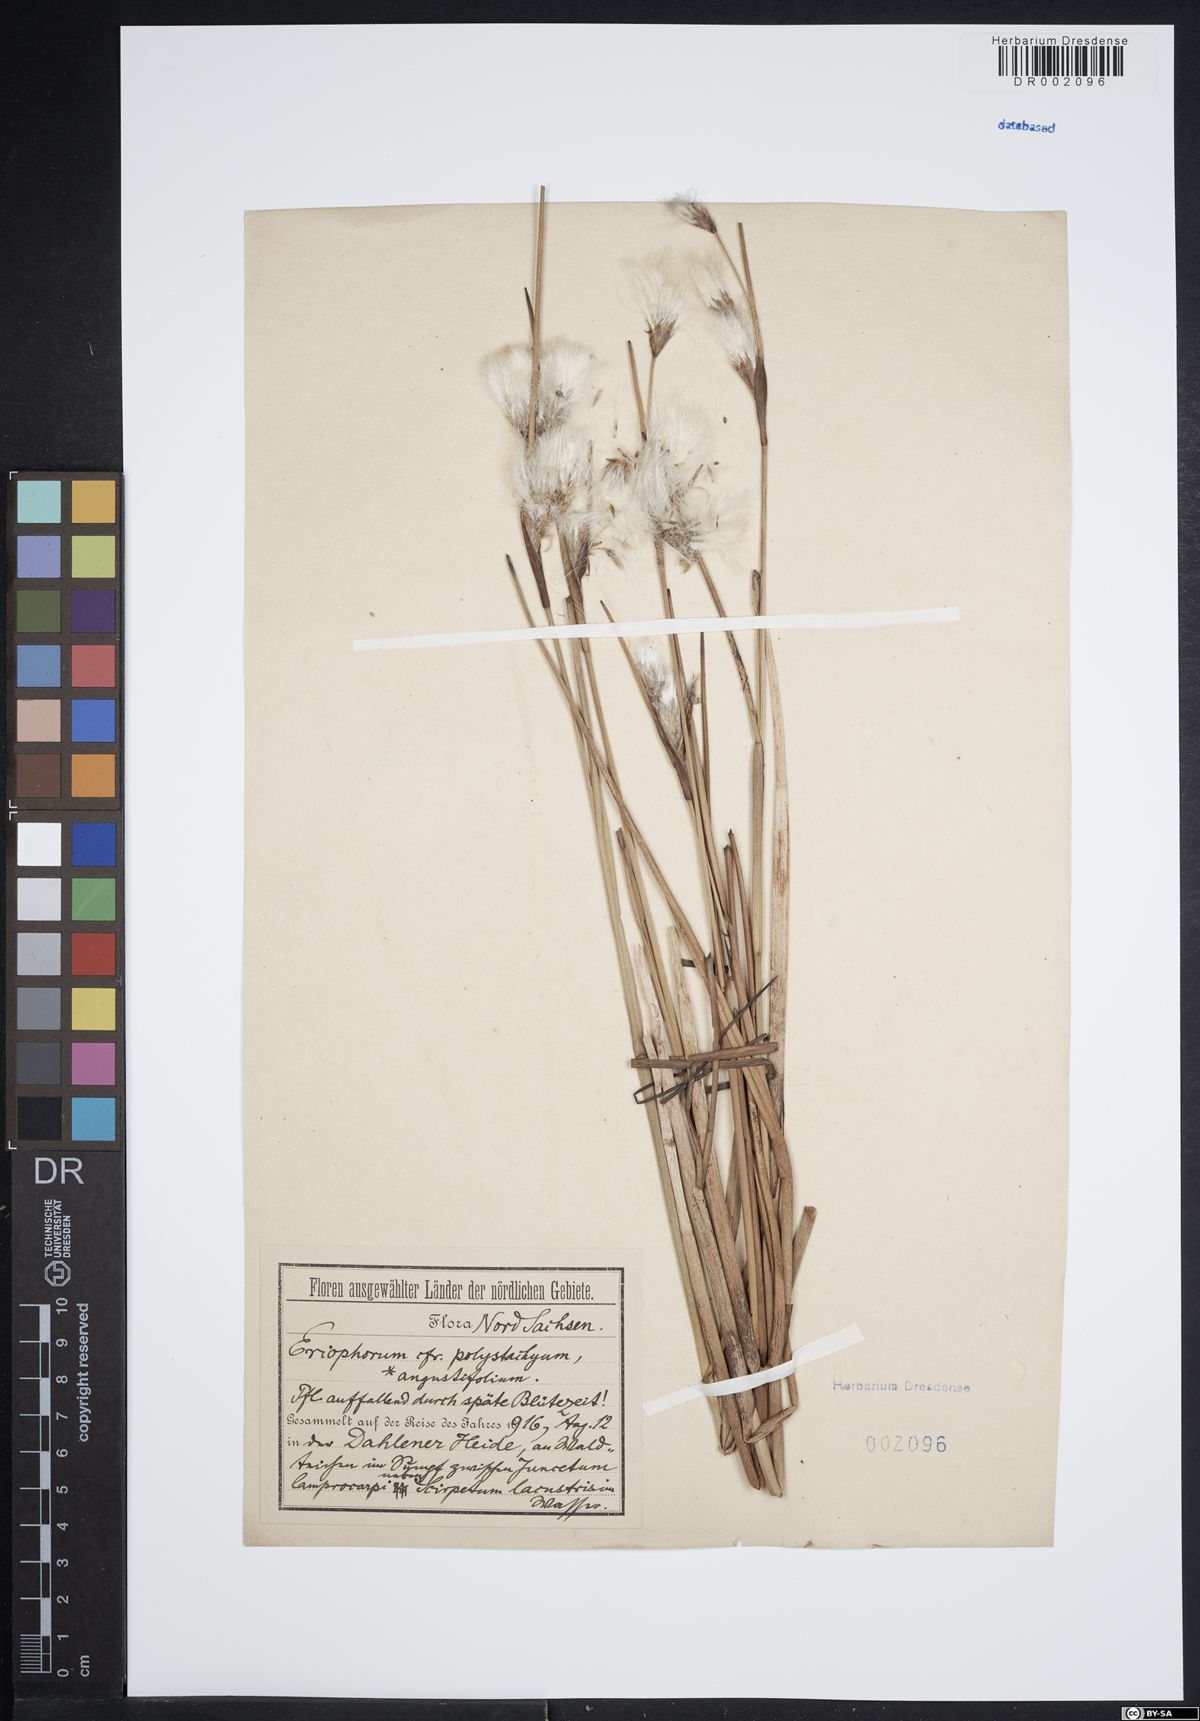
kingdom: Plantae
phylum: Tracheophyta
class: Liliopsida
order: Poales
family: Cyperaceae
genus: Eriophorum
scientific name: Eriophorum angustifolium
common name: Common cottongrass
